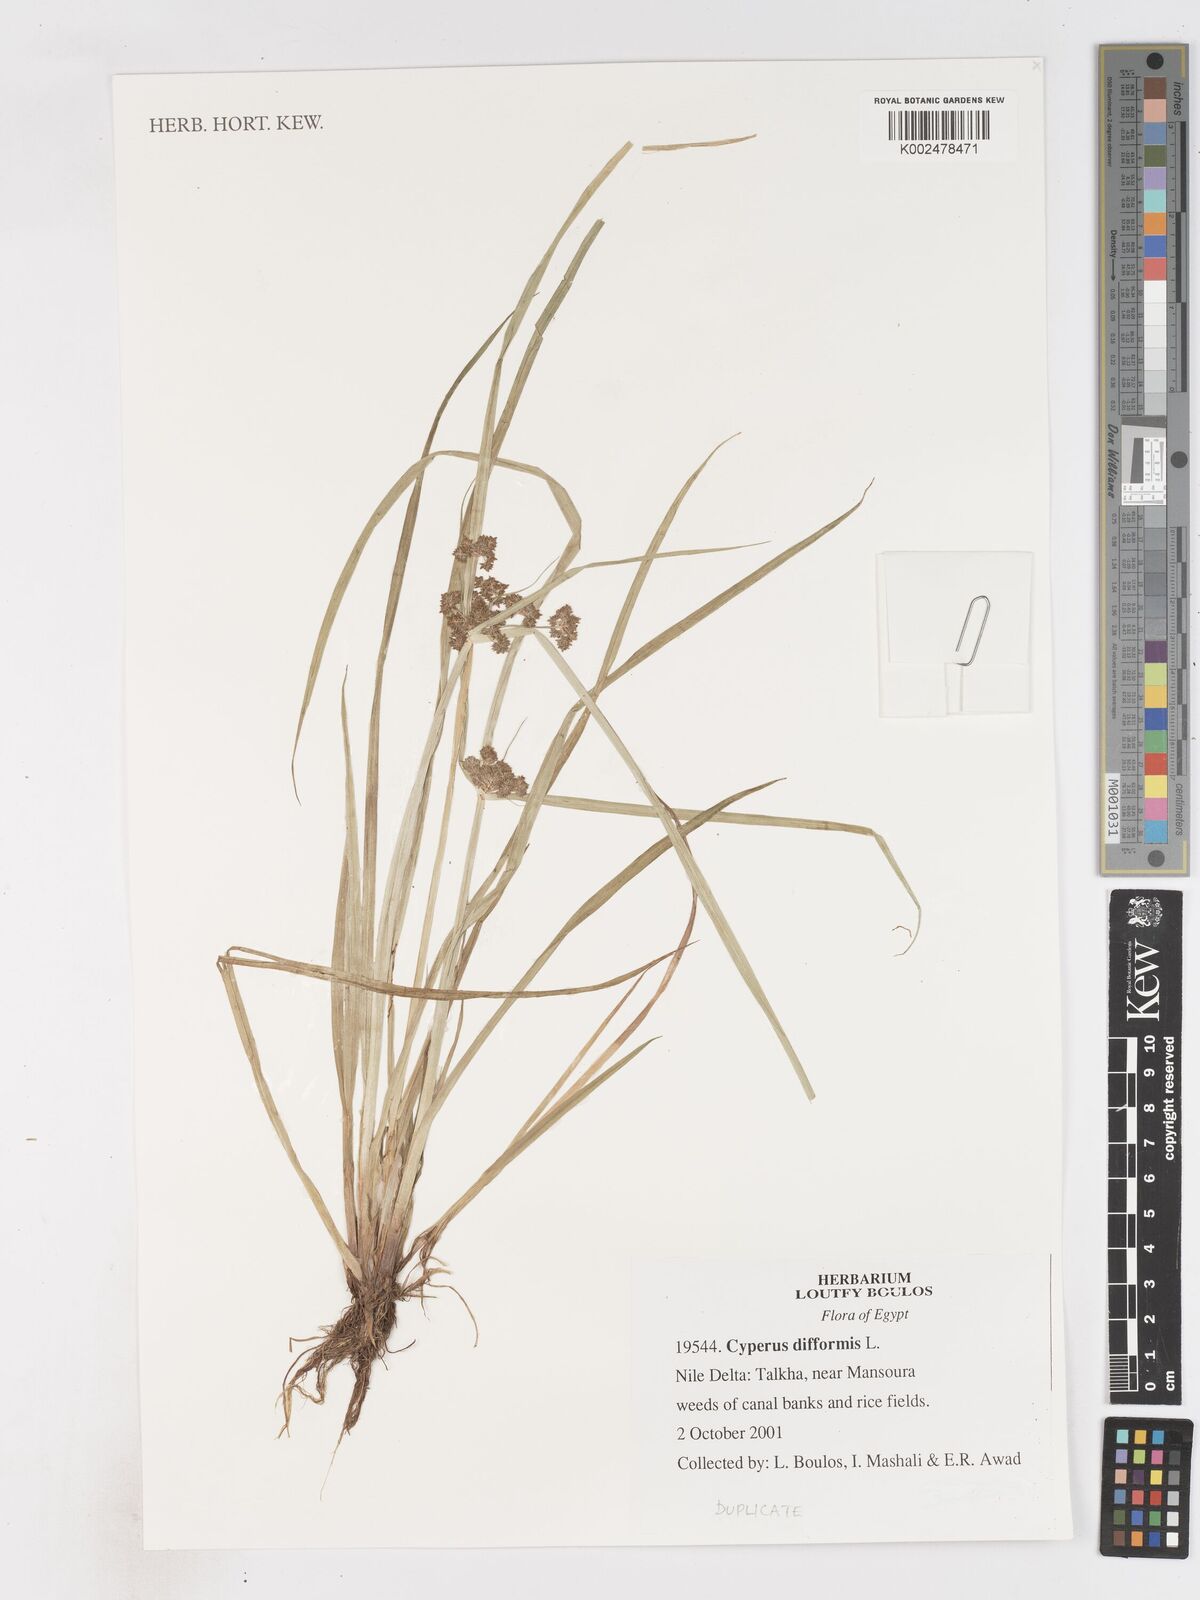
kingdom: Plantae
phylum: Tracheophyta
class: Liliopsida
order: Poales
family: Cyperaceae
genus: Cyperus
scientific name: Cyperus difformis
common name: Variable flatsedge
